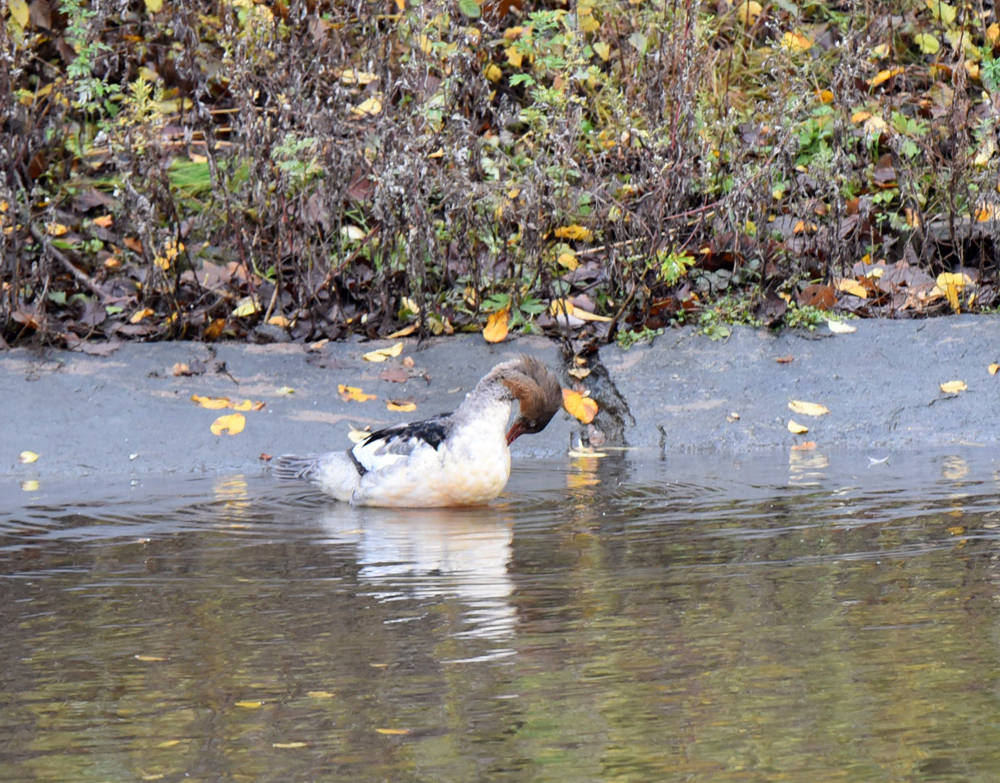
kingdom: Animalia
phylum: Chordata
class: Aves
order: Anseriformes
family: Anatidae
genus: Mergus
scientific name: Mergus serrator
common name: Red-breasted merganser
